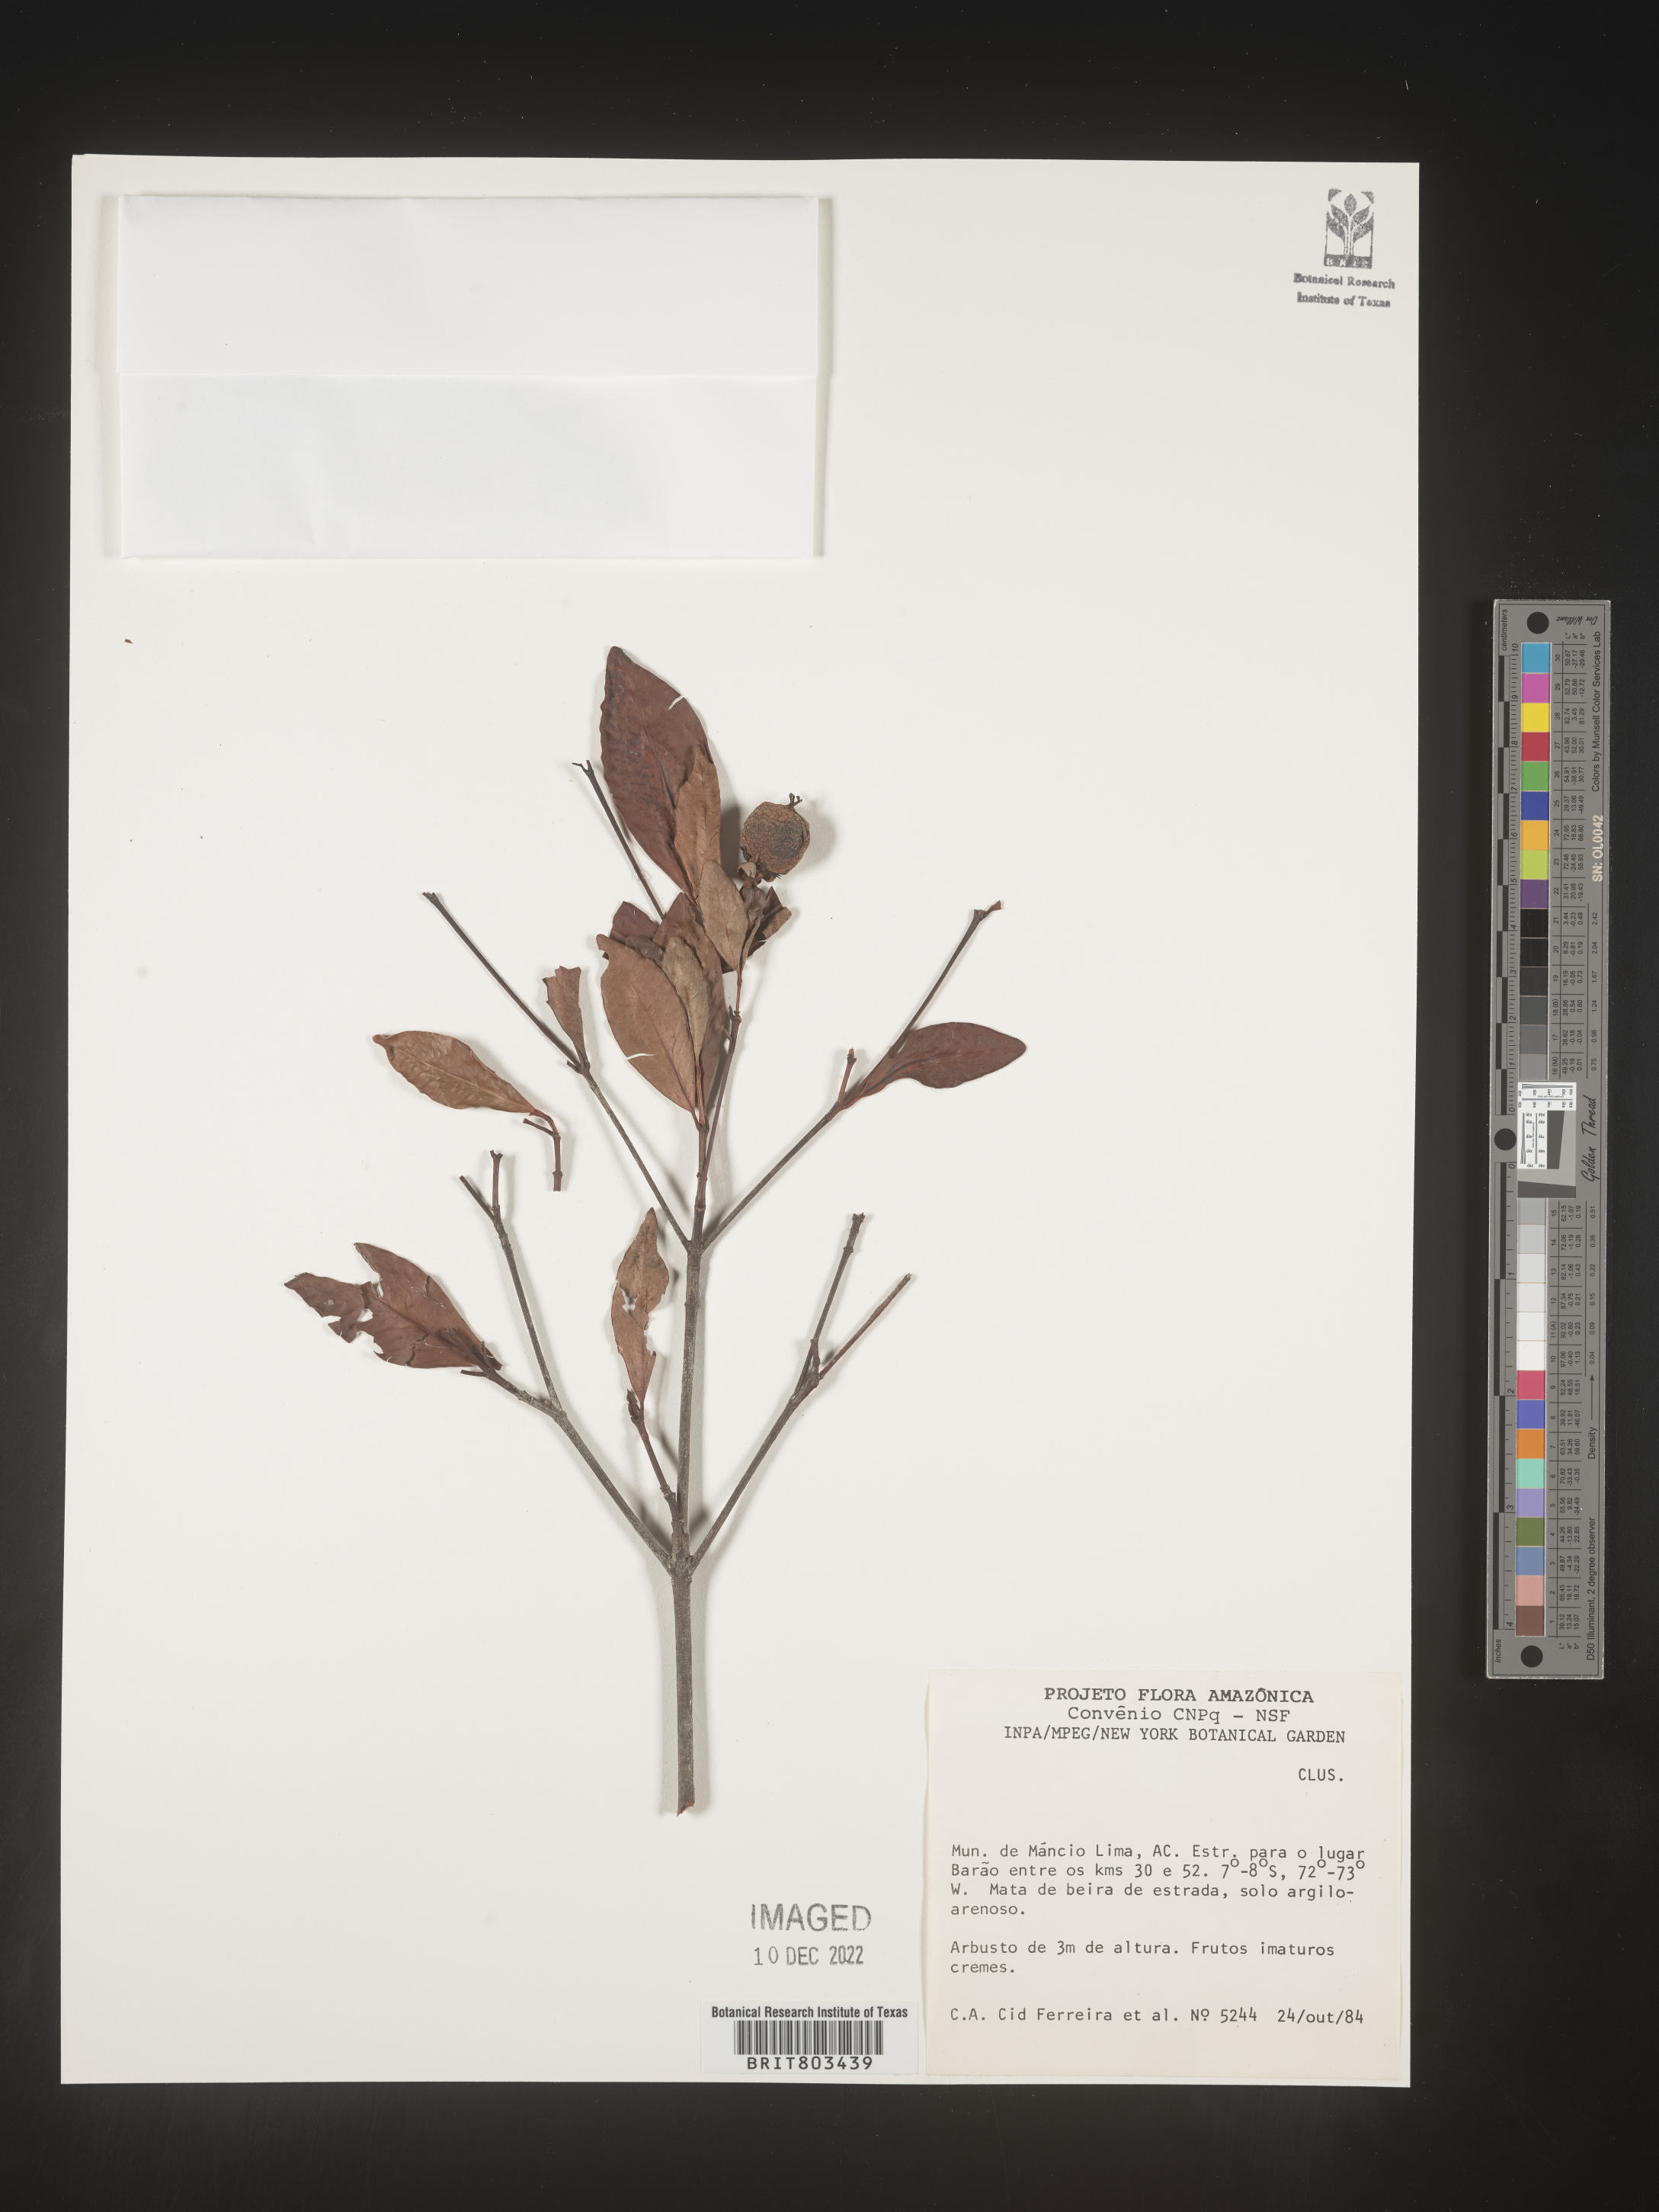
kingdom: Plantae
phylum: Tracheophyta
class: Magnoliopsida
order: Malpighiales
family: Clusiaceae
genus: Tovomita
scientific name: Tovomita
